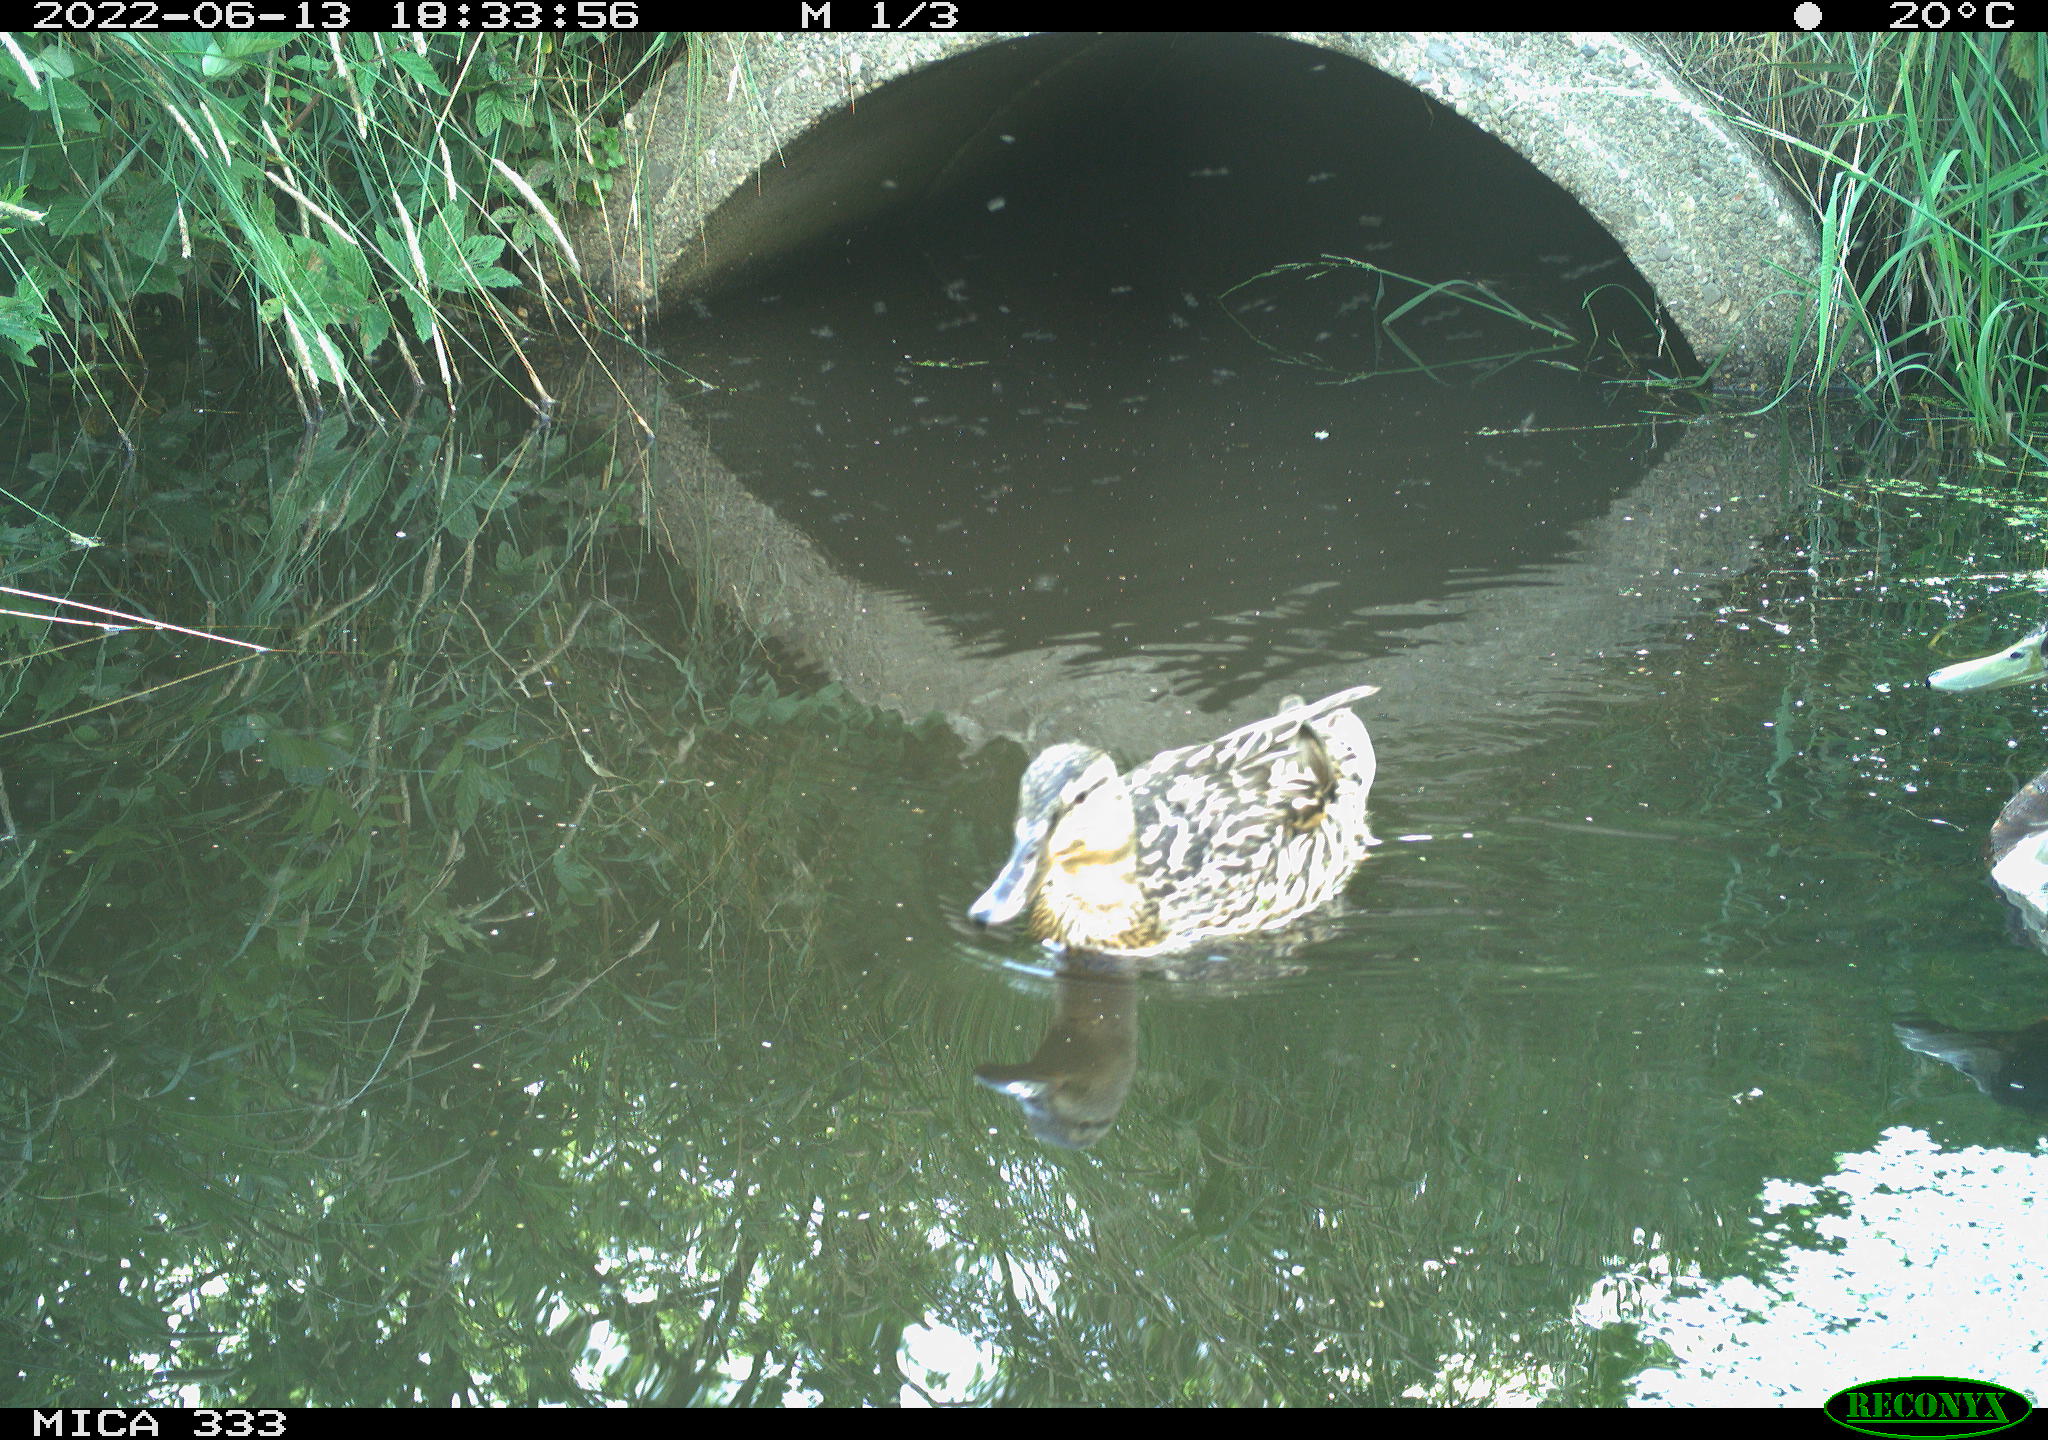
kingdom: Animalia
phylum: Chordata
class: Aves
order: Anseriformes
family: Anatidae
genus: Anas
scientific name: Anas platyrhynchos
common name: Mallard
